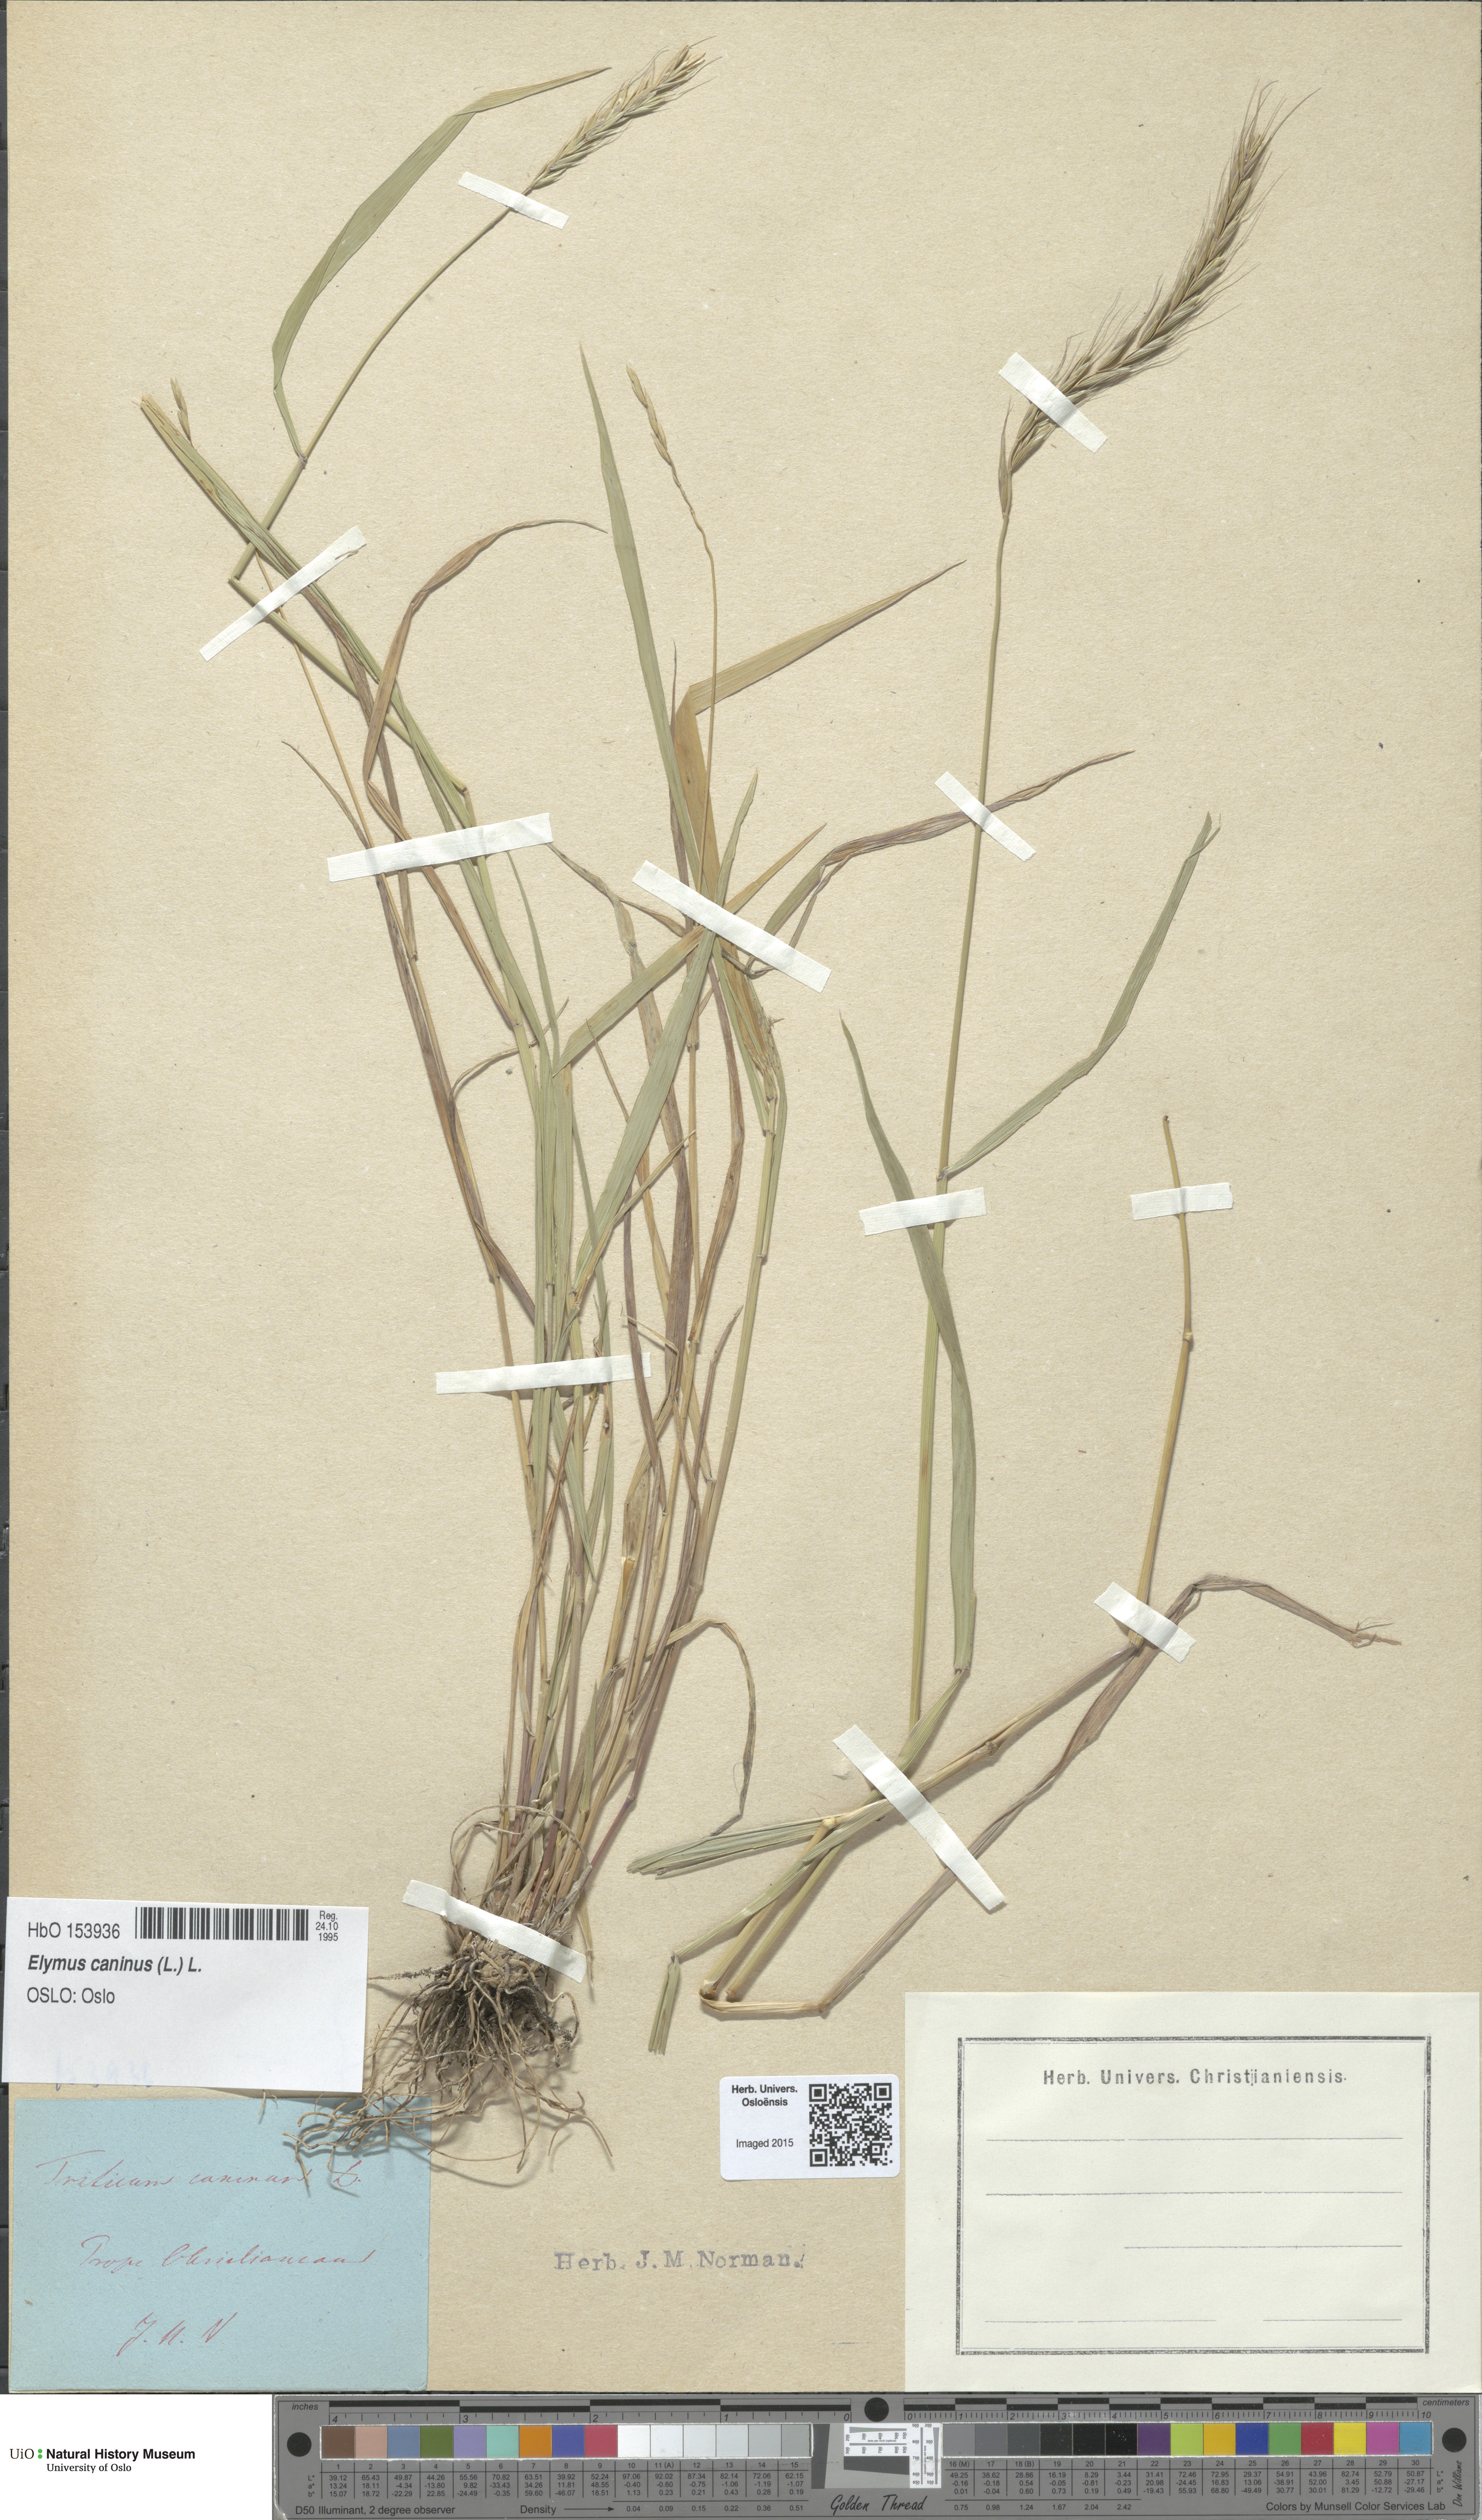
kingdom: Plantae
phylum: Tracheophyta
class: Liliopsida
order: Poales
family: Poaceae
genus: Elymus
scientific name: Elymus caninus
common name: Bearded couch
